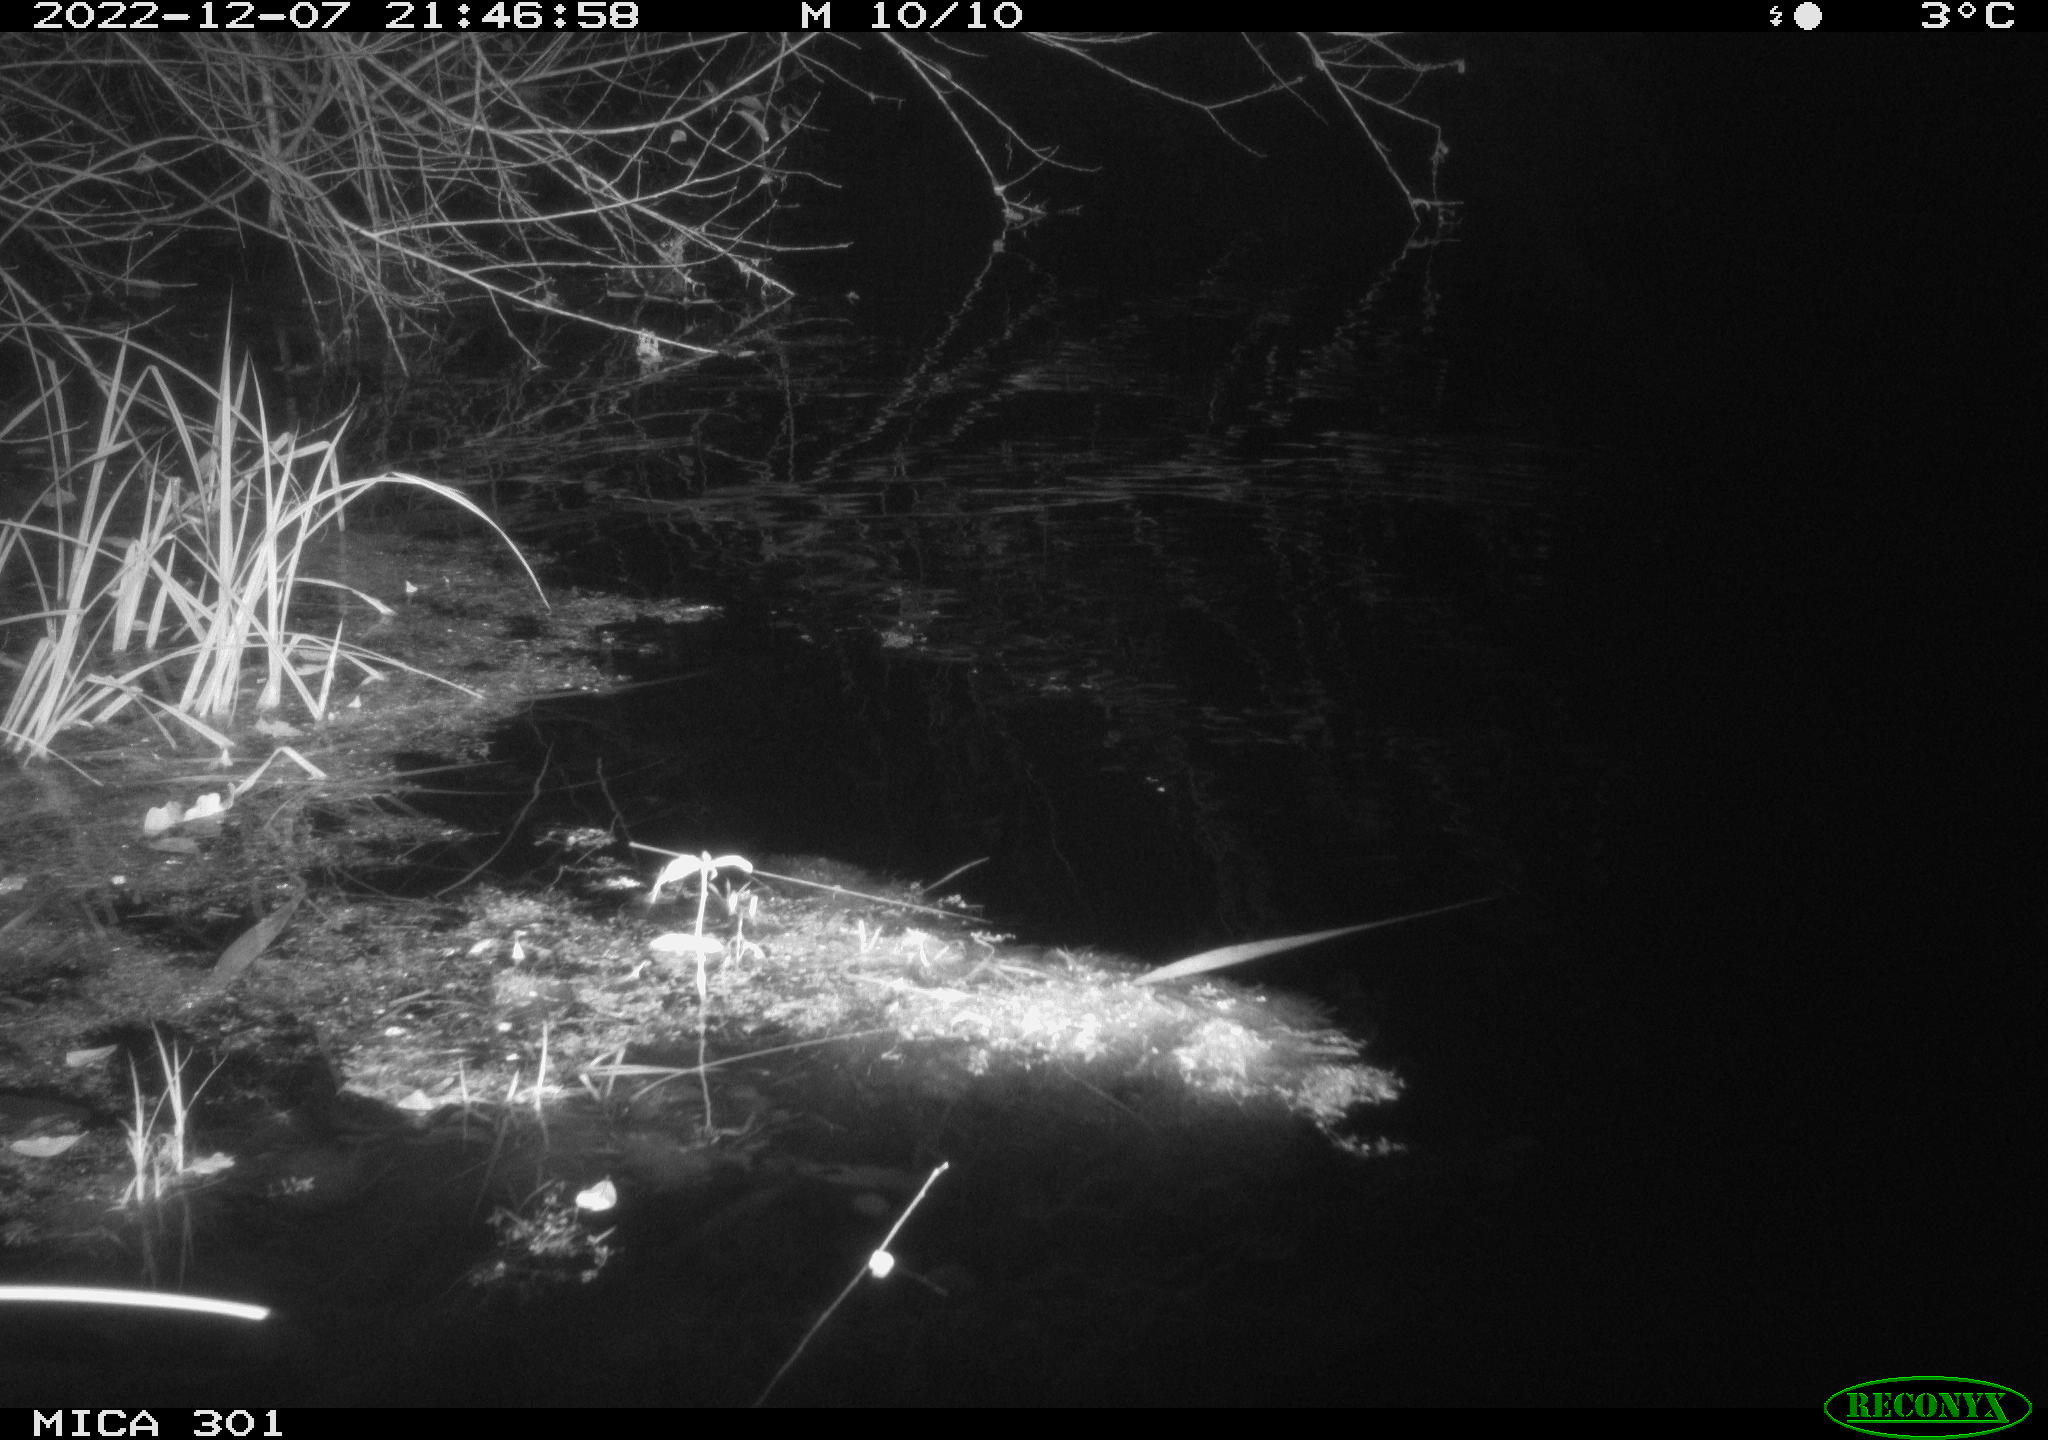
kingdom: Animalia
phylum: Chordata
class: Mammalia
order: Rodentia
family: Muridae
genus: Rattus
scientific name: Rattus norvegicus
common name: Brown rat
